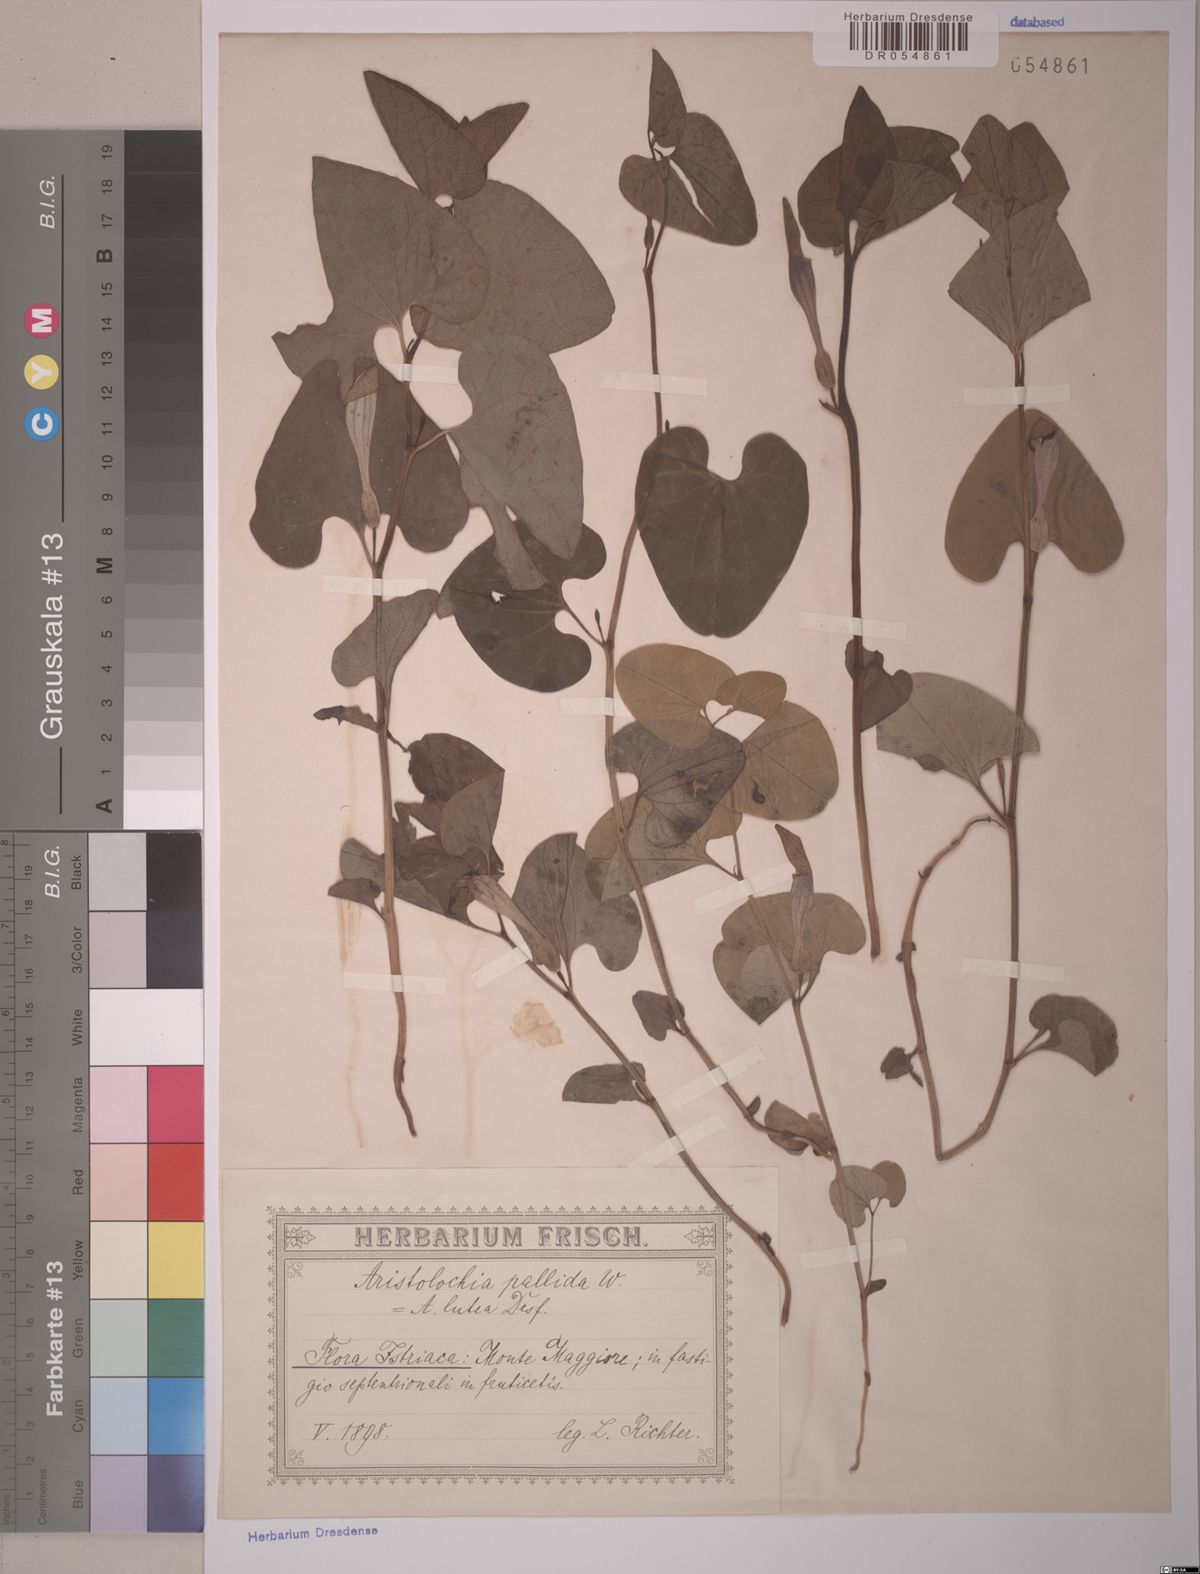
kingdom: Plantae
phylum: Tracheophyta
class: Magnoliopsida
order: Piperales
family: Aristolochiaceae
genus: Aristolochia
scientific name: Aristolochia pallida
